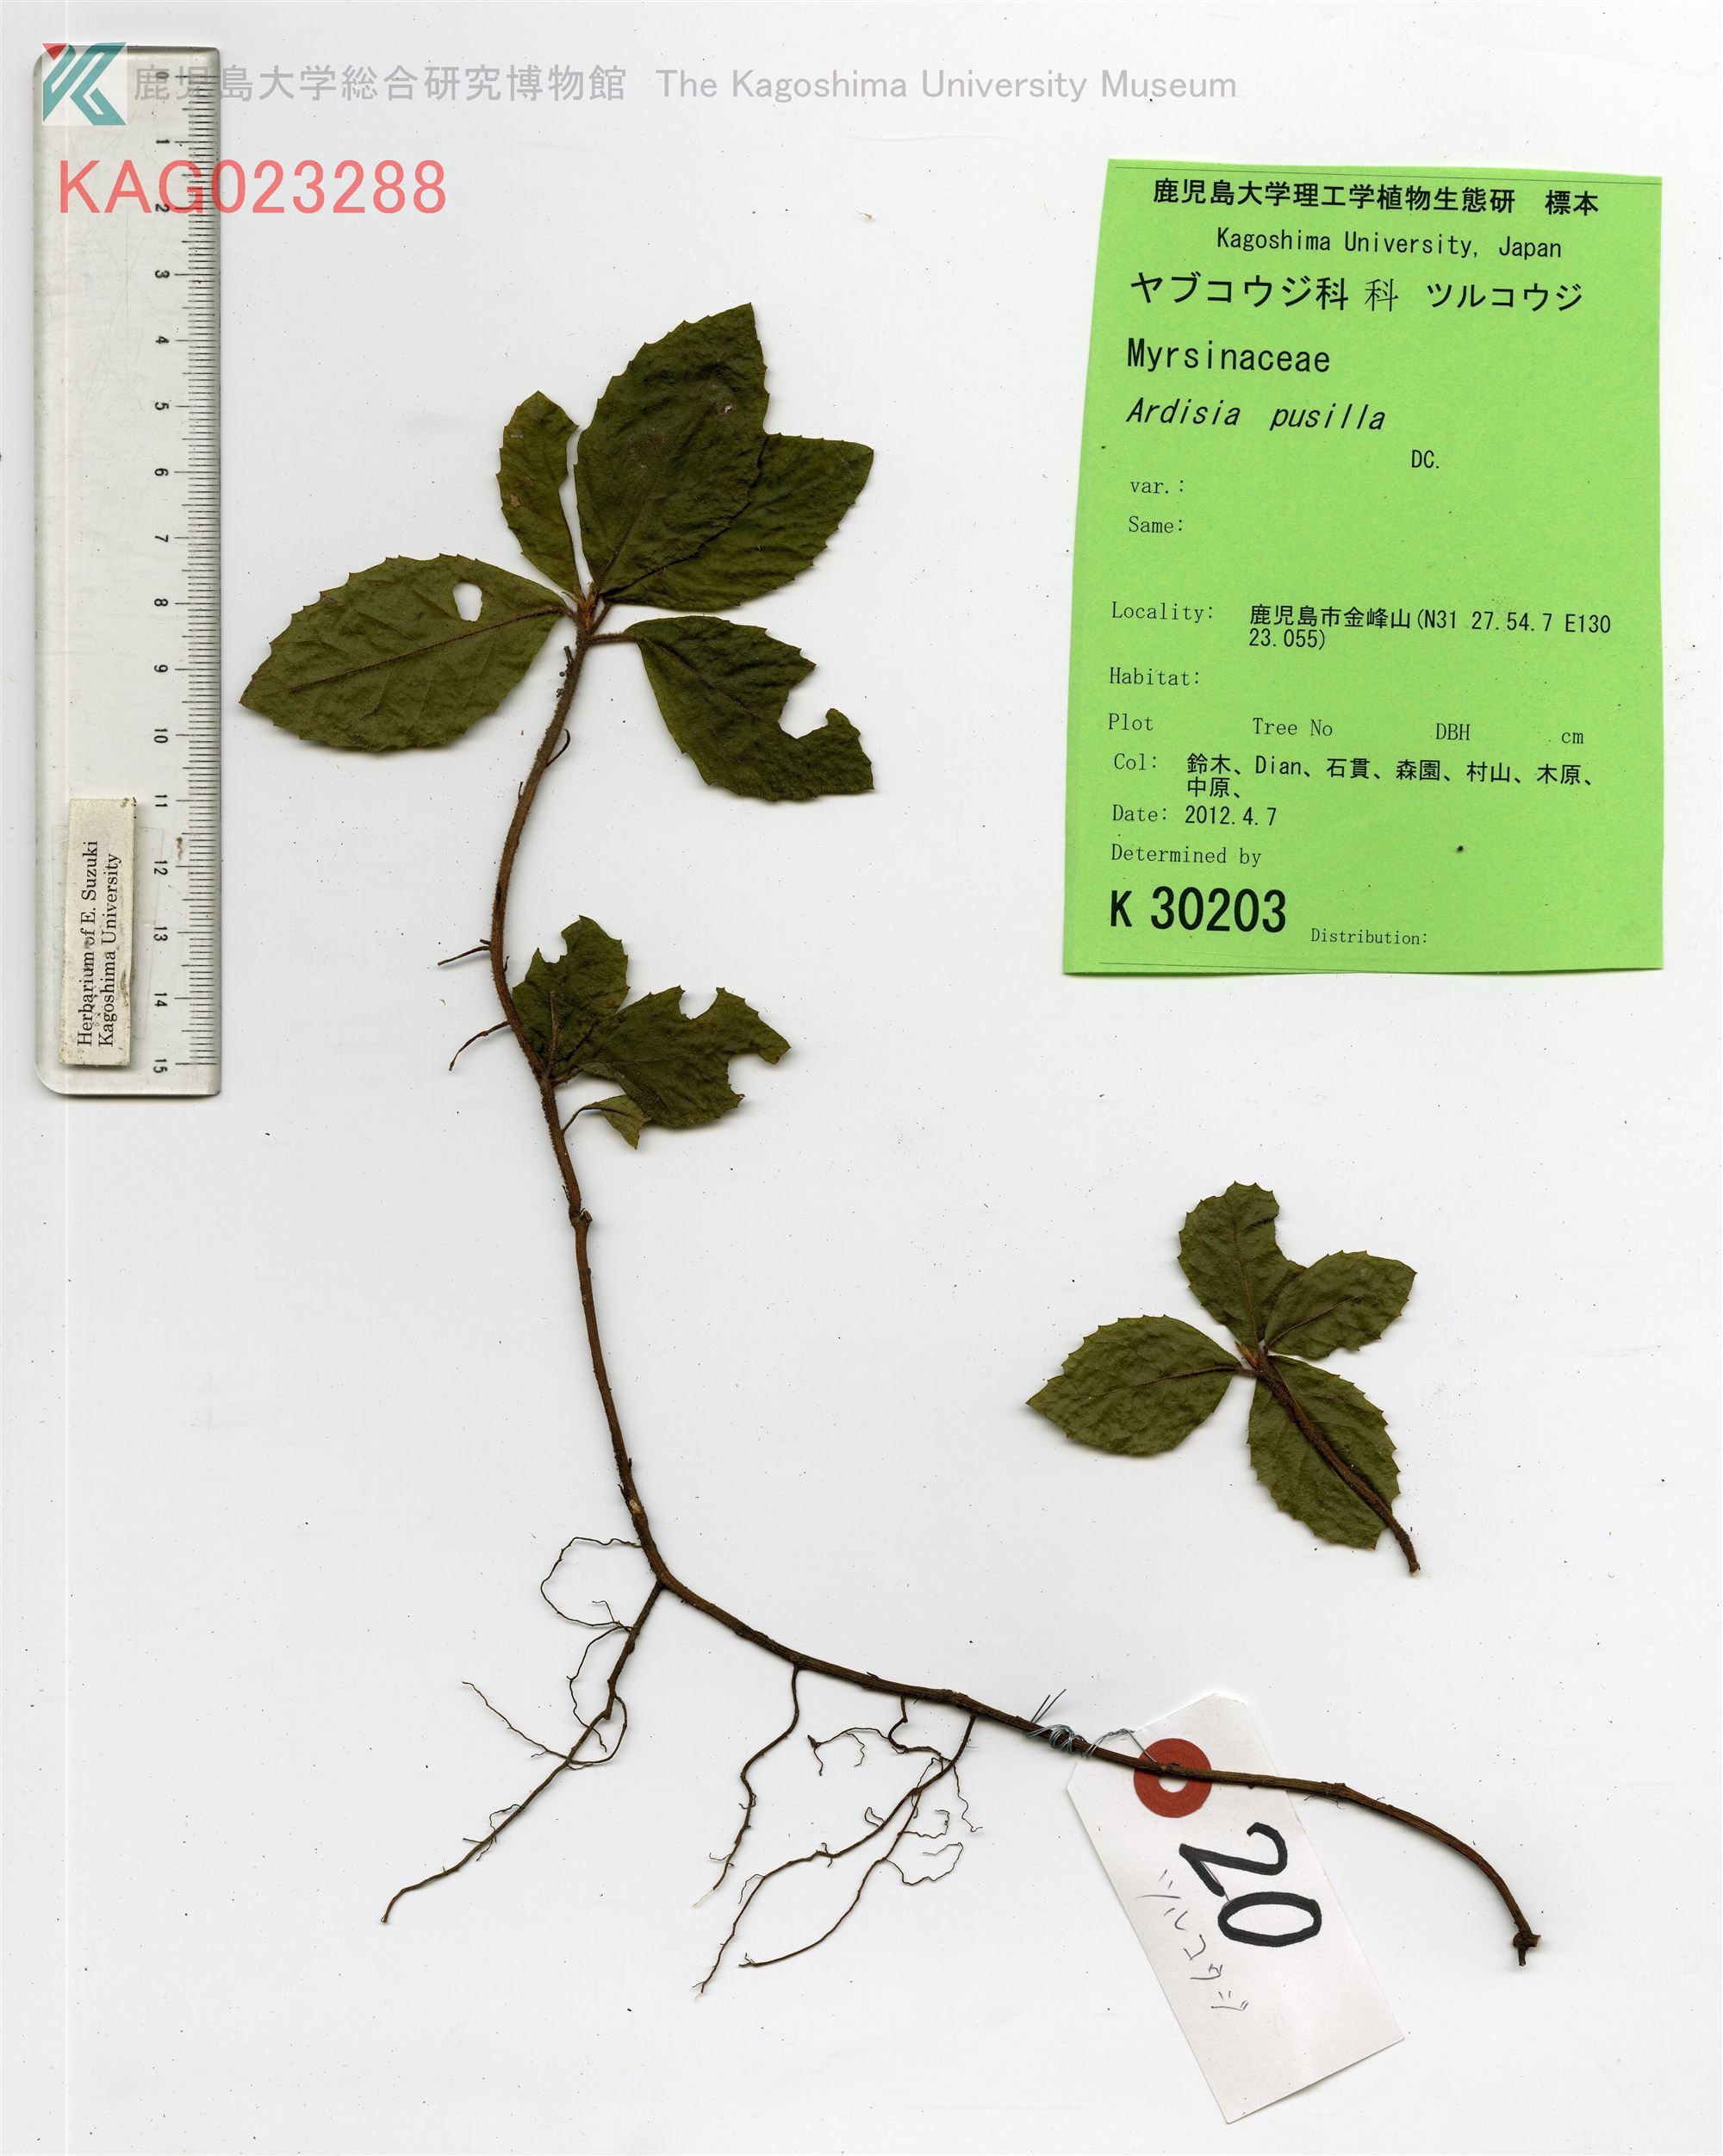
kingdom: Plantae
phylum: Tracheophyta
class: Magnoliopsida
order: Ericales
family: Primulaceae
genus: Ardisia
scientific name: Ardisia pusilla
